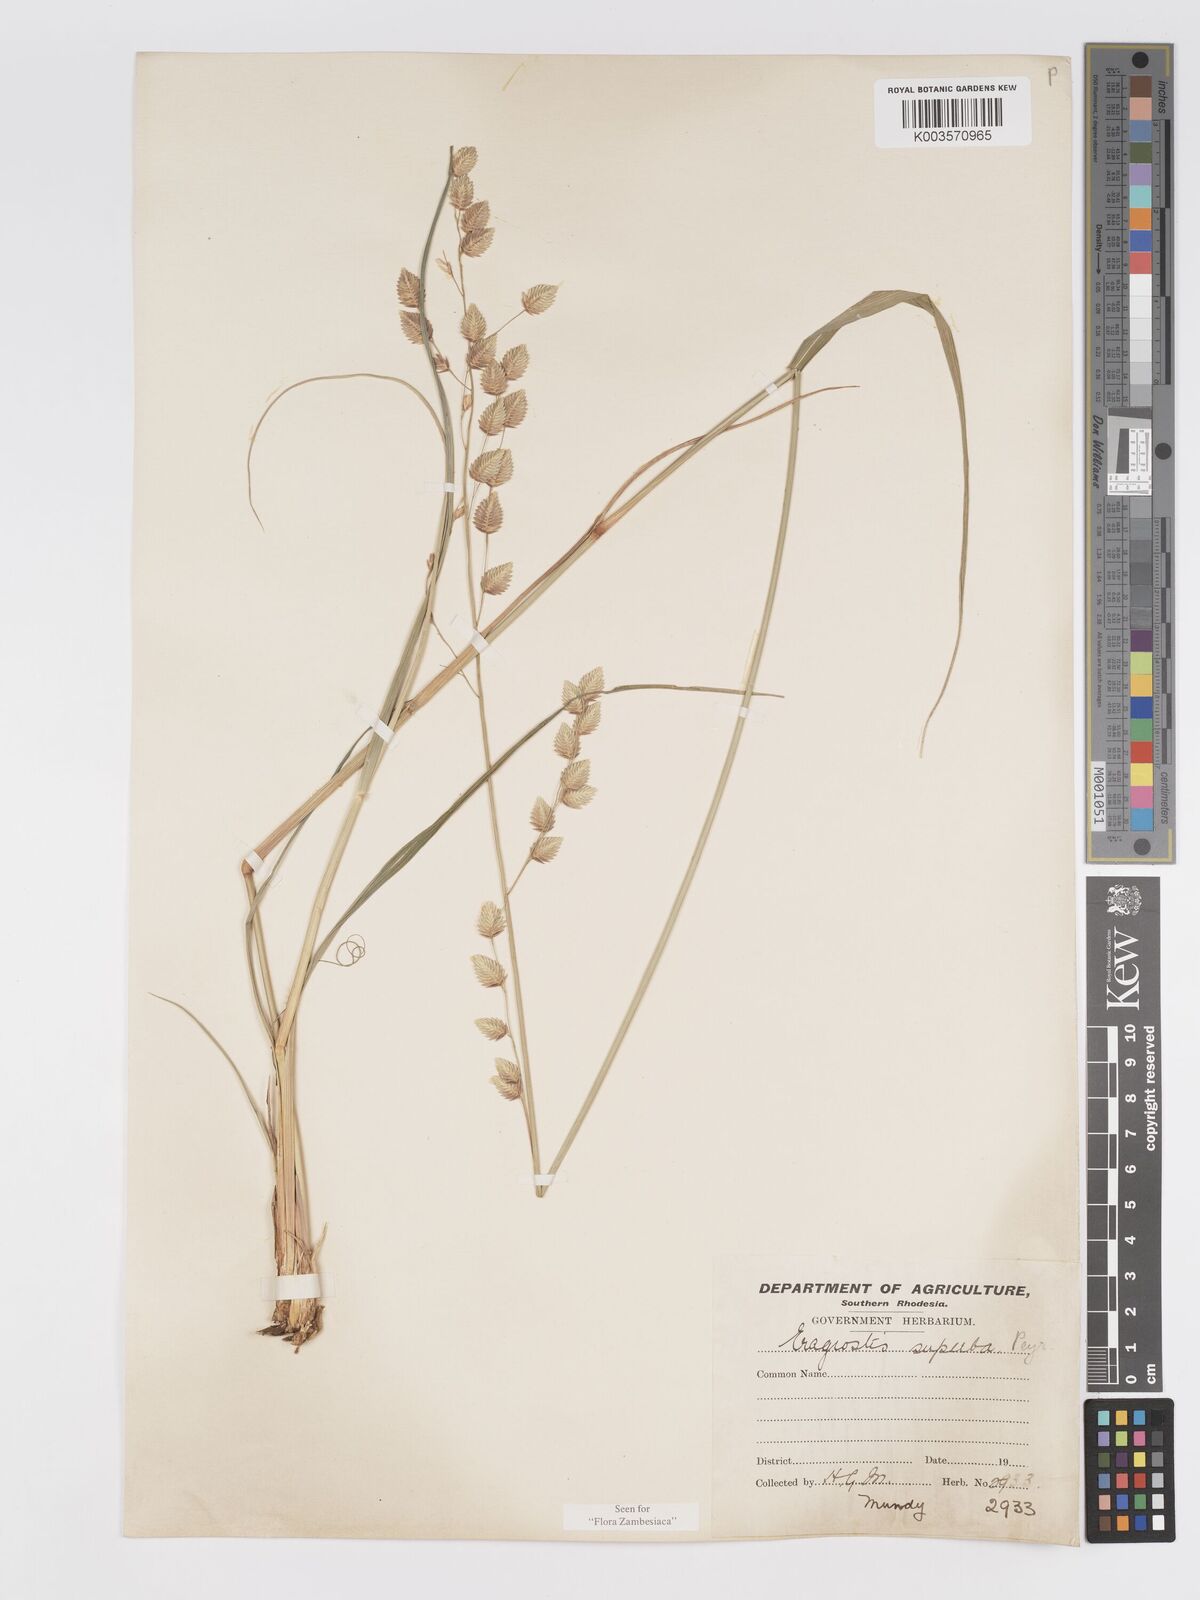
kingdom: Plantae
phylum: Tracheophyta
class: Liliopsida
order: Poales
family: Poaceae
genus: Eragrostis
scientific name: Eragrostis superba
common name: Wilman lovegrass
